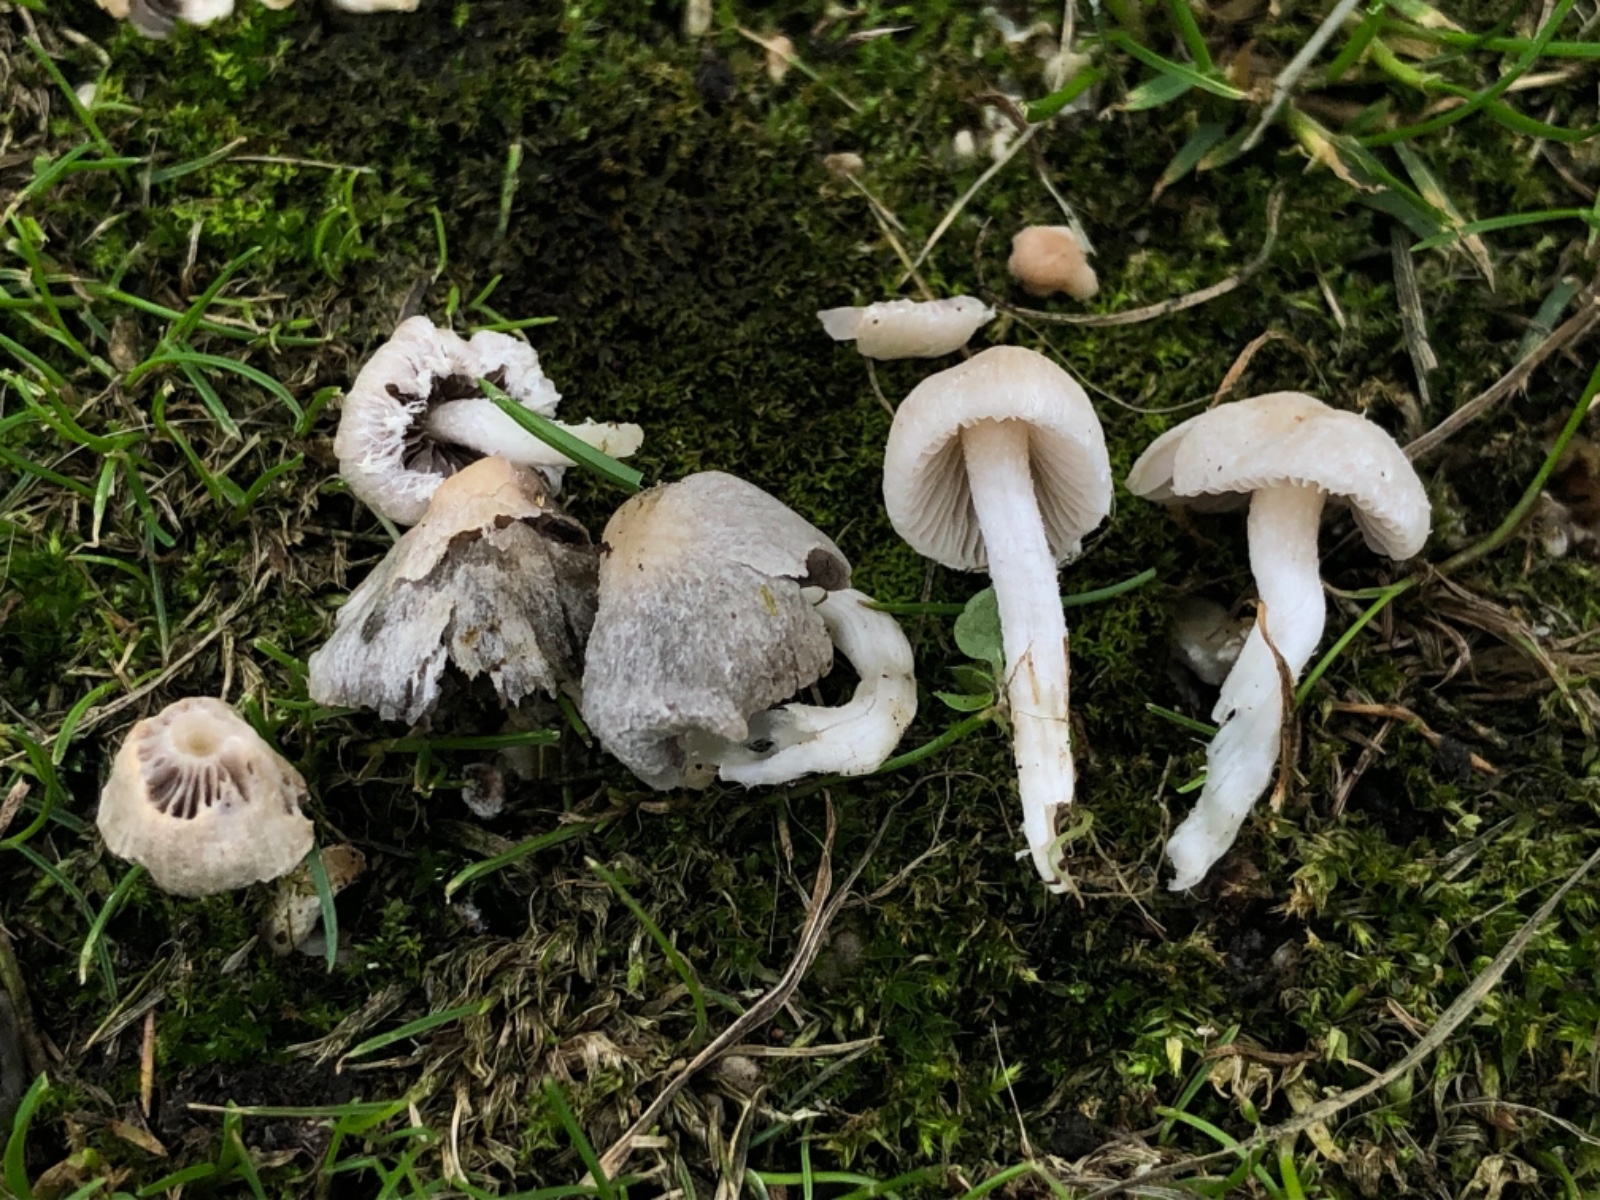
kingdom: Fungi
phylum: Basidiomycota
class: Agaricomycetes
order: Agaricales
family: Psathyrellaceae
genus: Psathyrella
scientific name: Psathyrella gordonii
